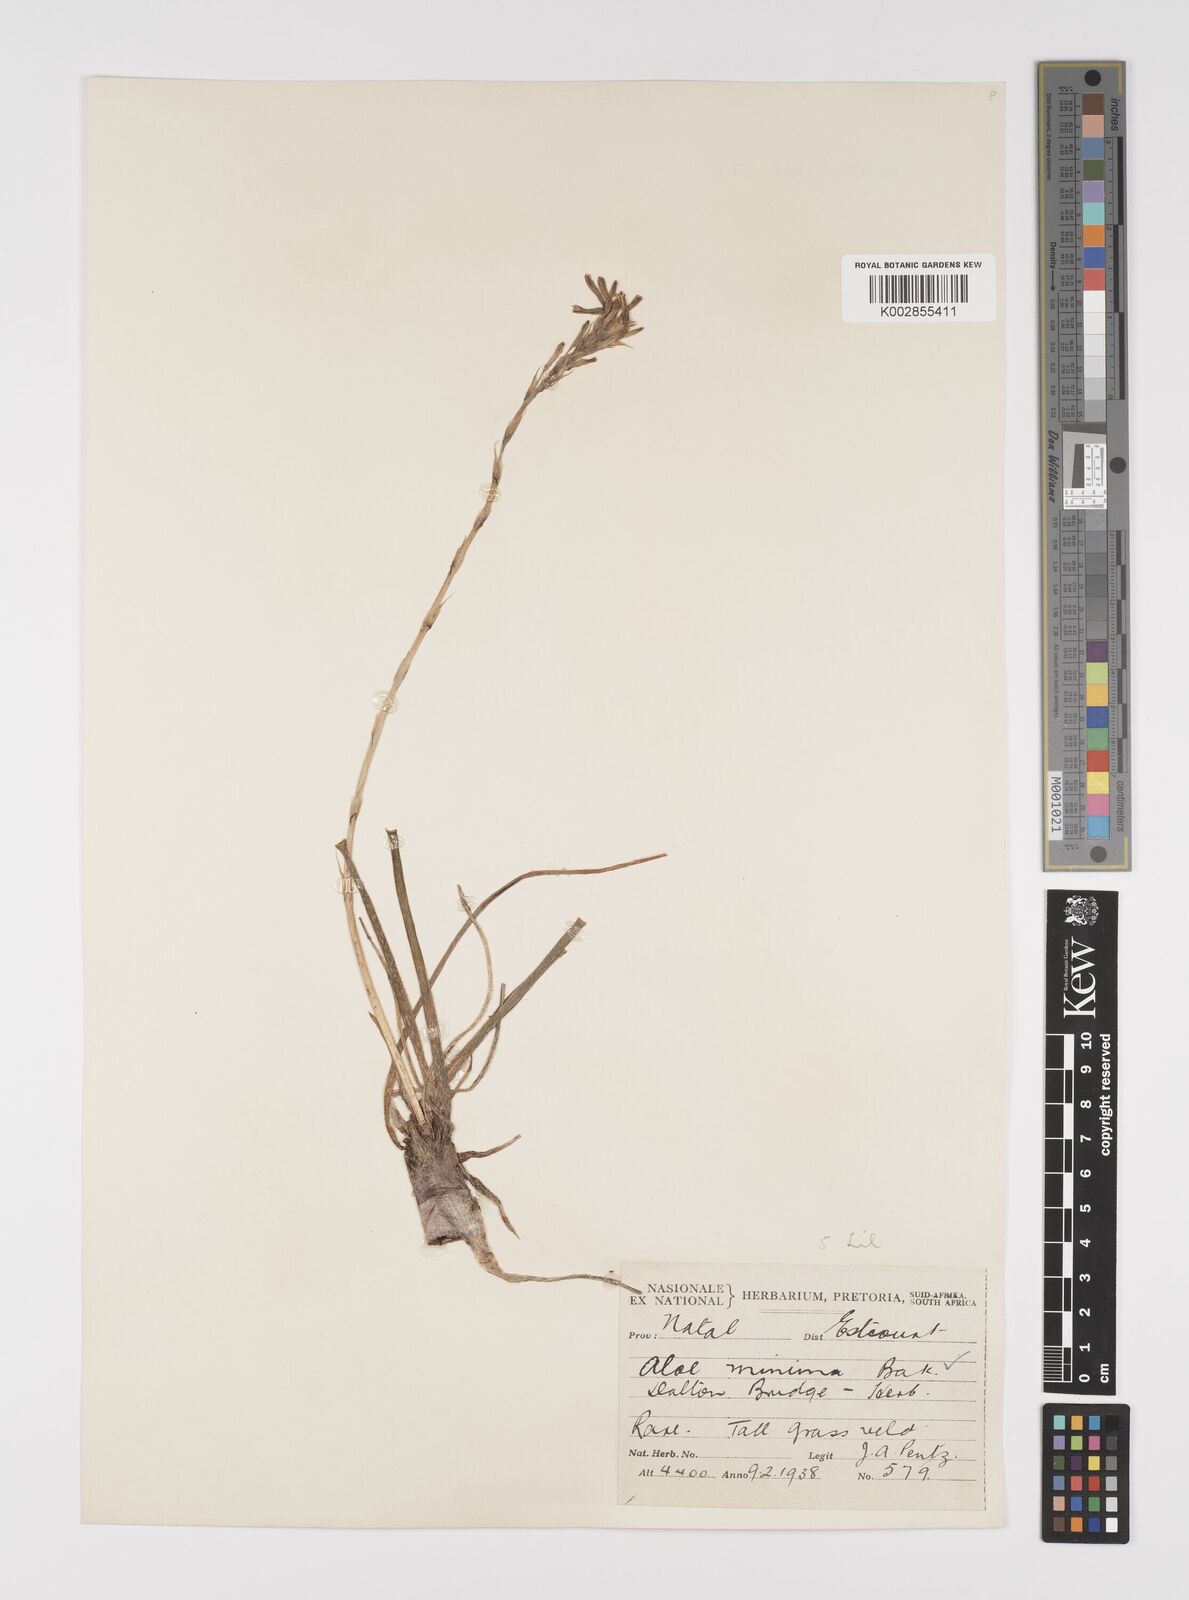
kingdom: Plantae
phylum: Tracheophyta
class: Liliopsida
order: Asparagales
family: Asphodelaceae
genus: Aloe
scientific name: Aloe minima
